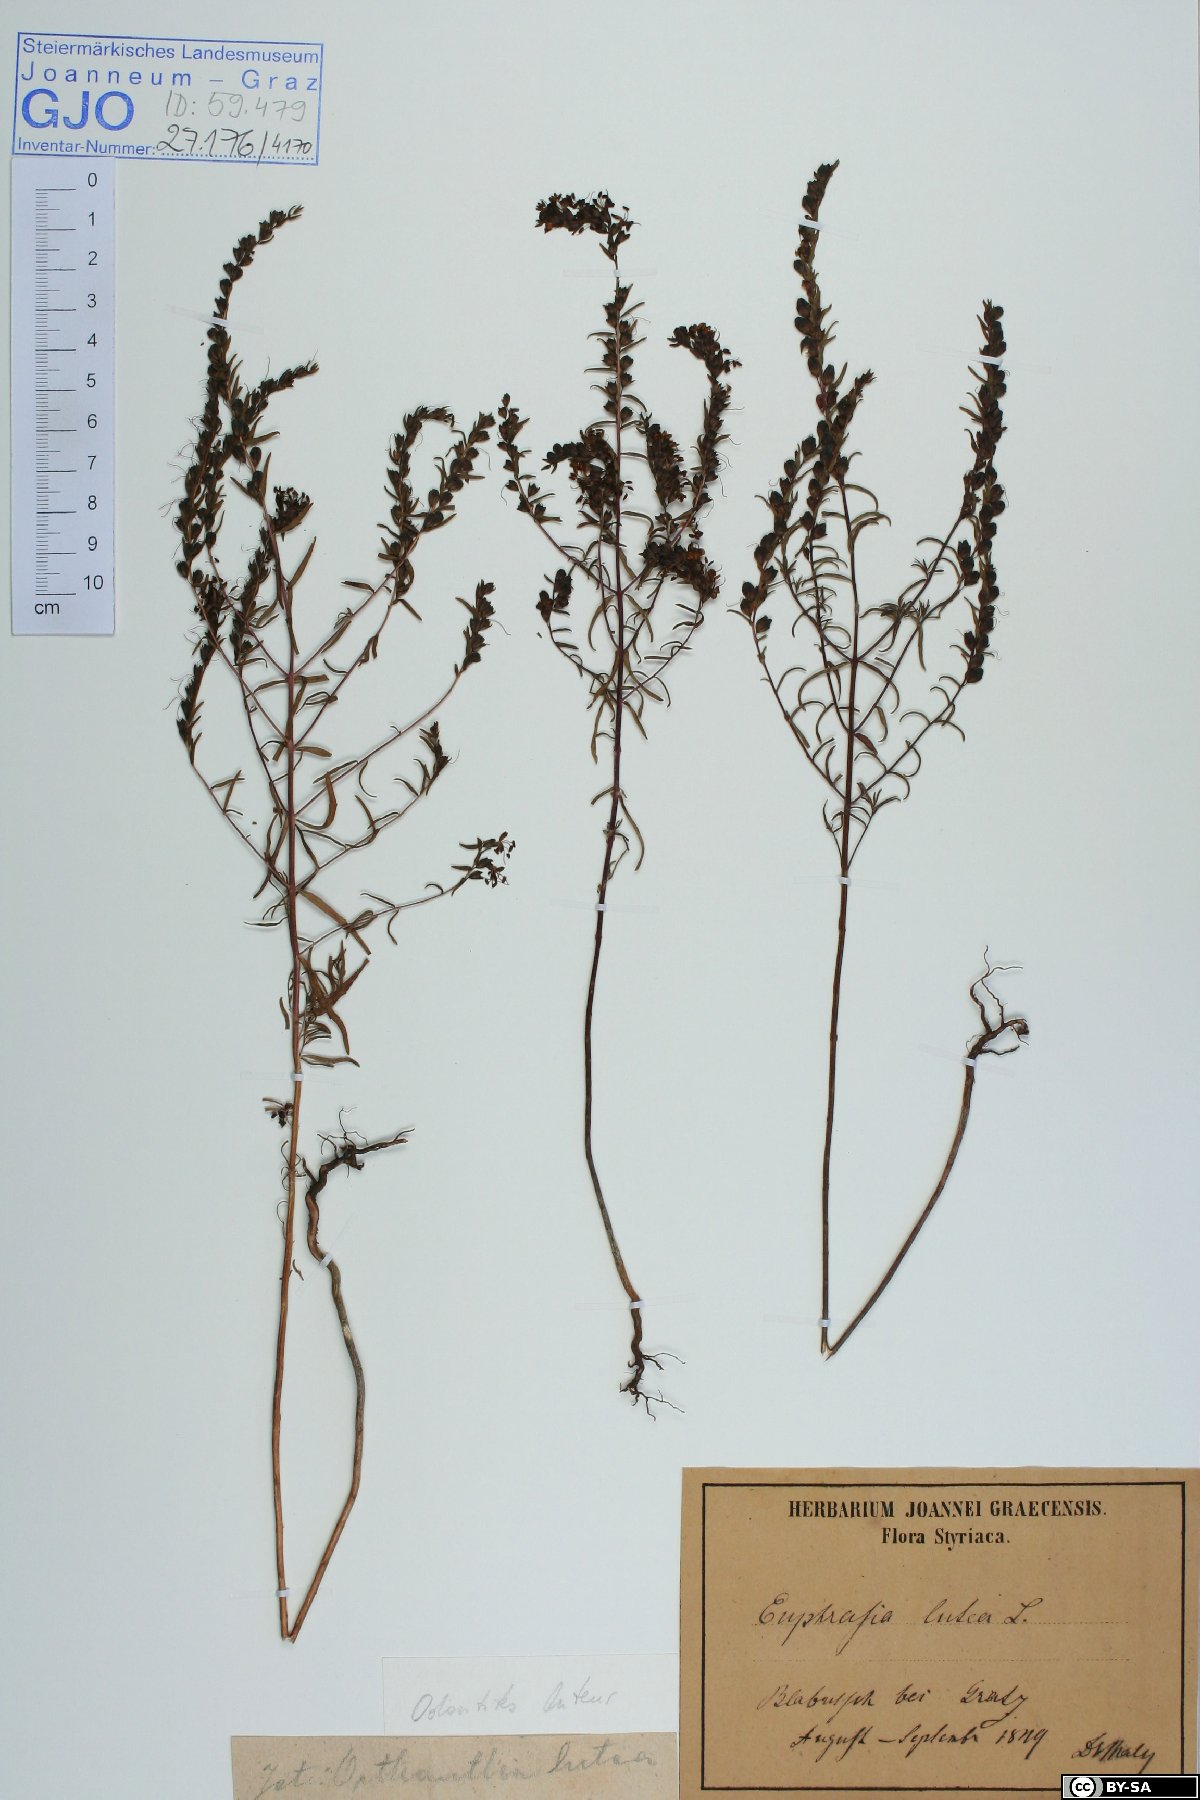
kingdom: Plantae
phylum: Tracheophyta
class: Magnoliopsida
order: Lamiales
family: Orobanchaceae
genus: Odontites
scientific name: Odontites luteus
